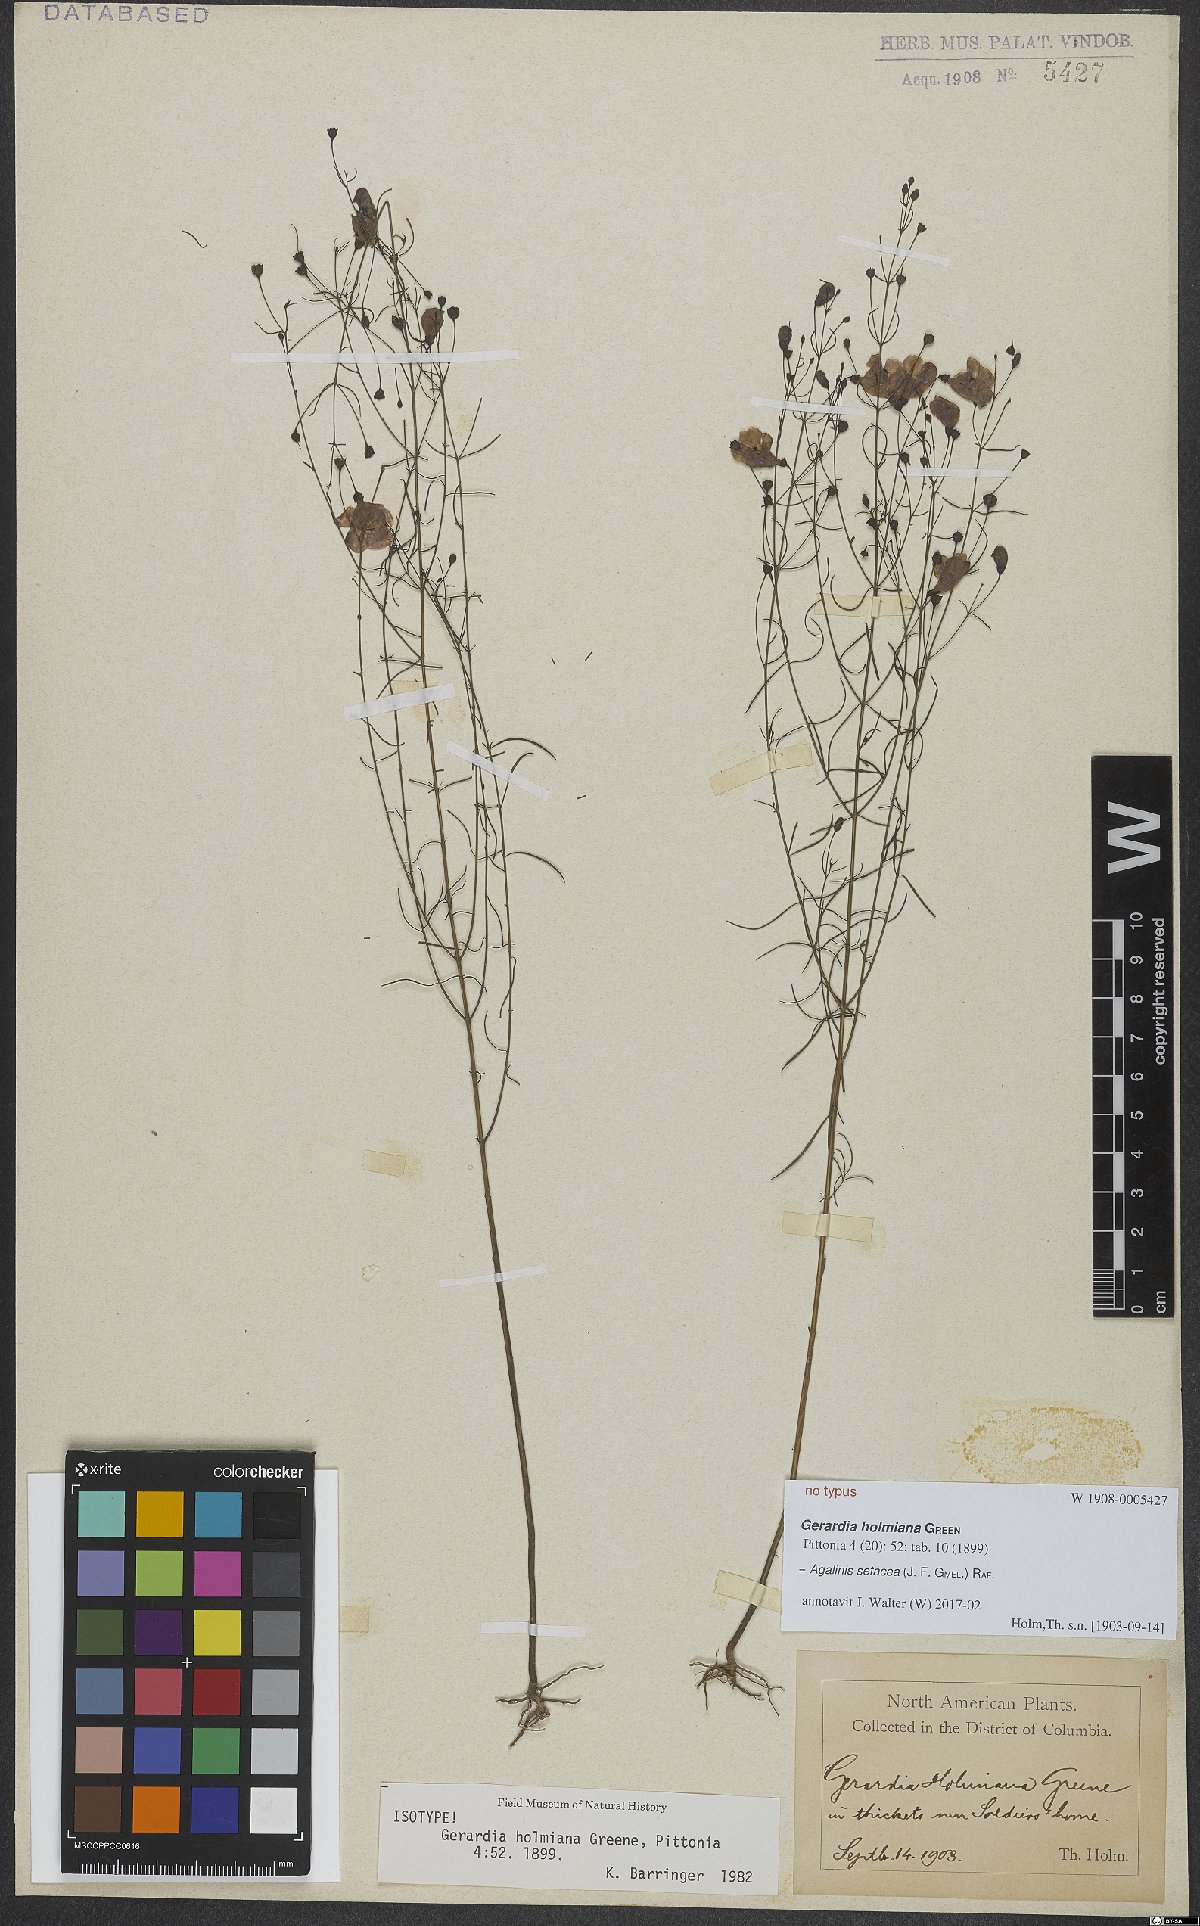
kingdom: Plantae
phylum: Tracheophyta
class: Magnoliopsida
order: Lamiales
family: Orobanchaceae
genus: Agalinis
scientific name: Agalinis setacea
